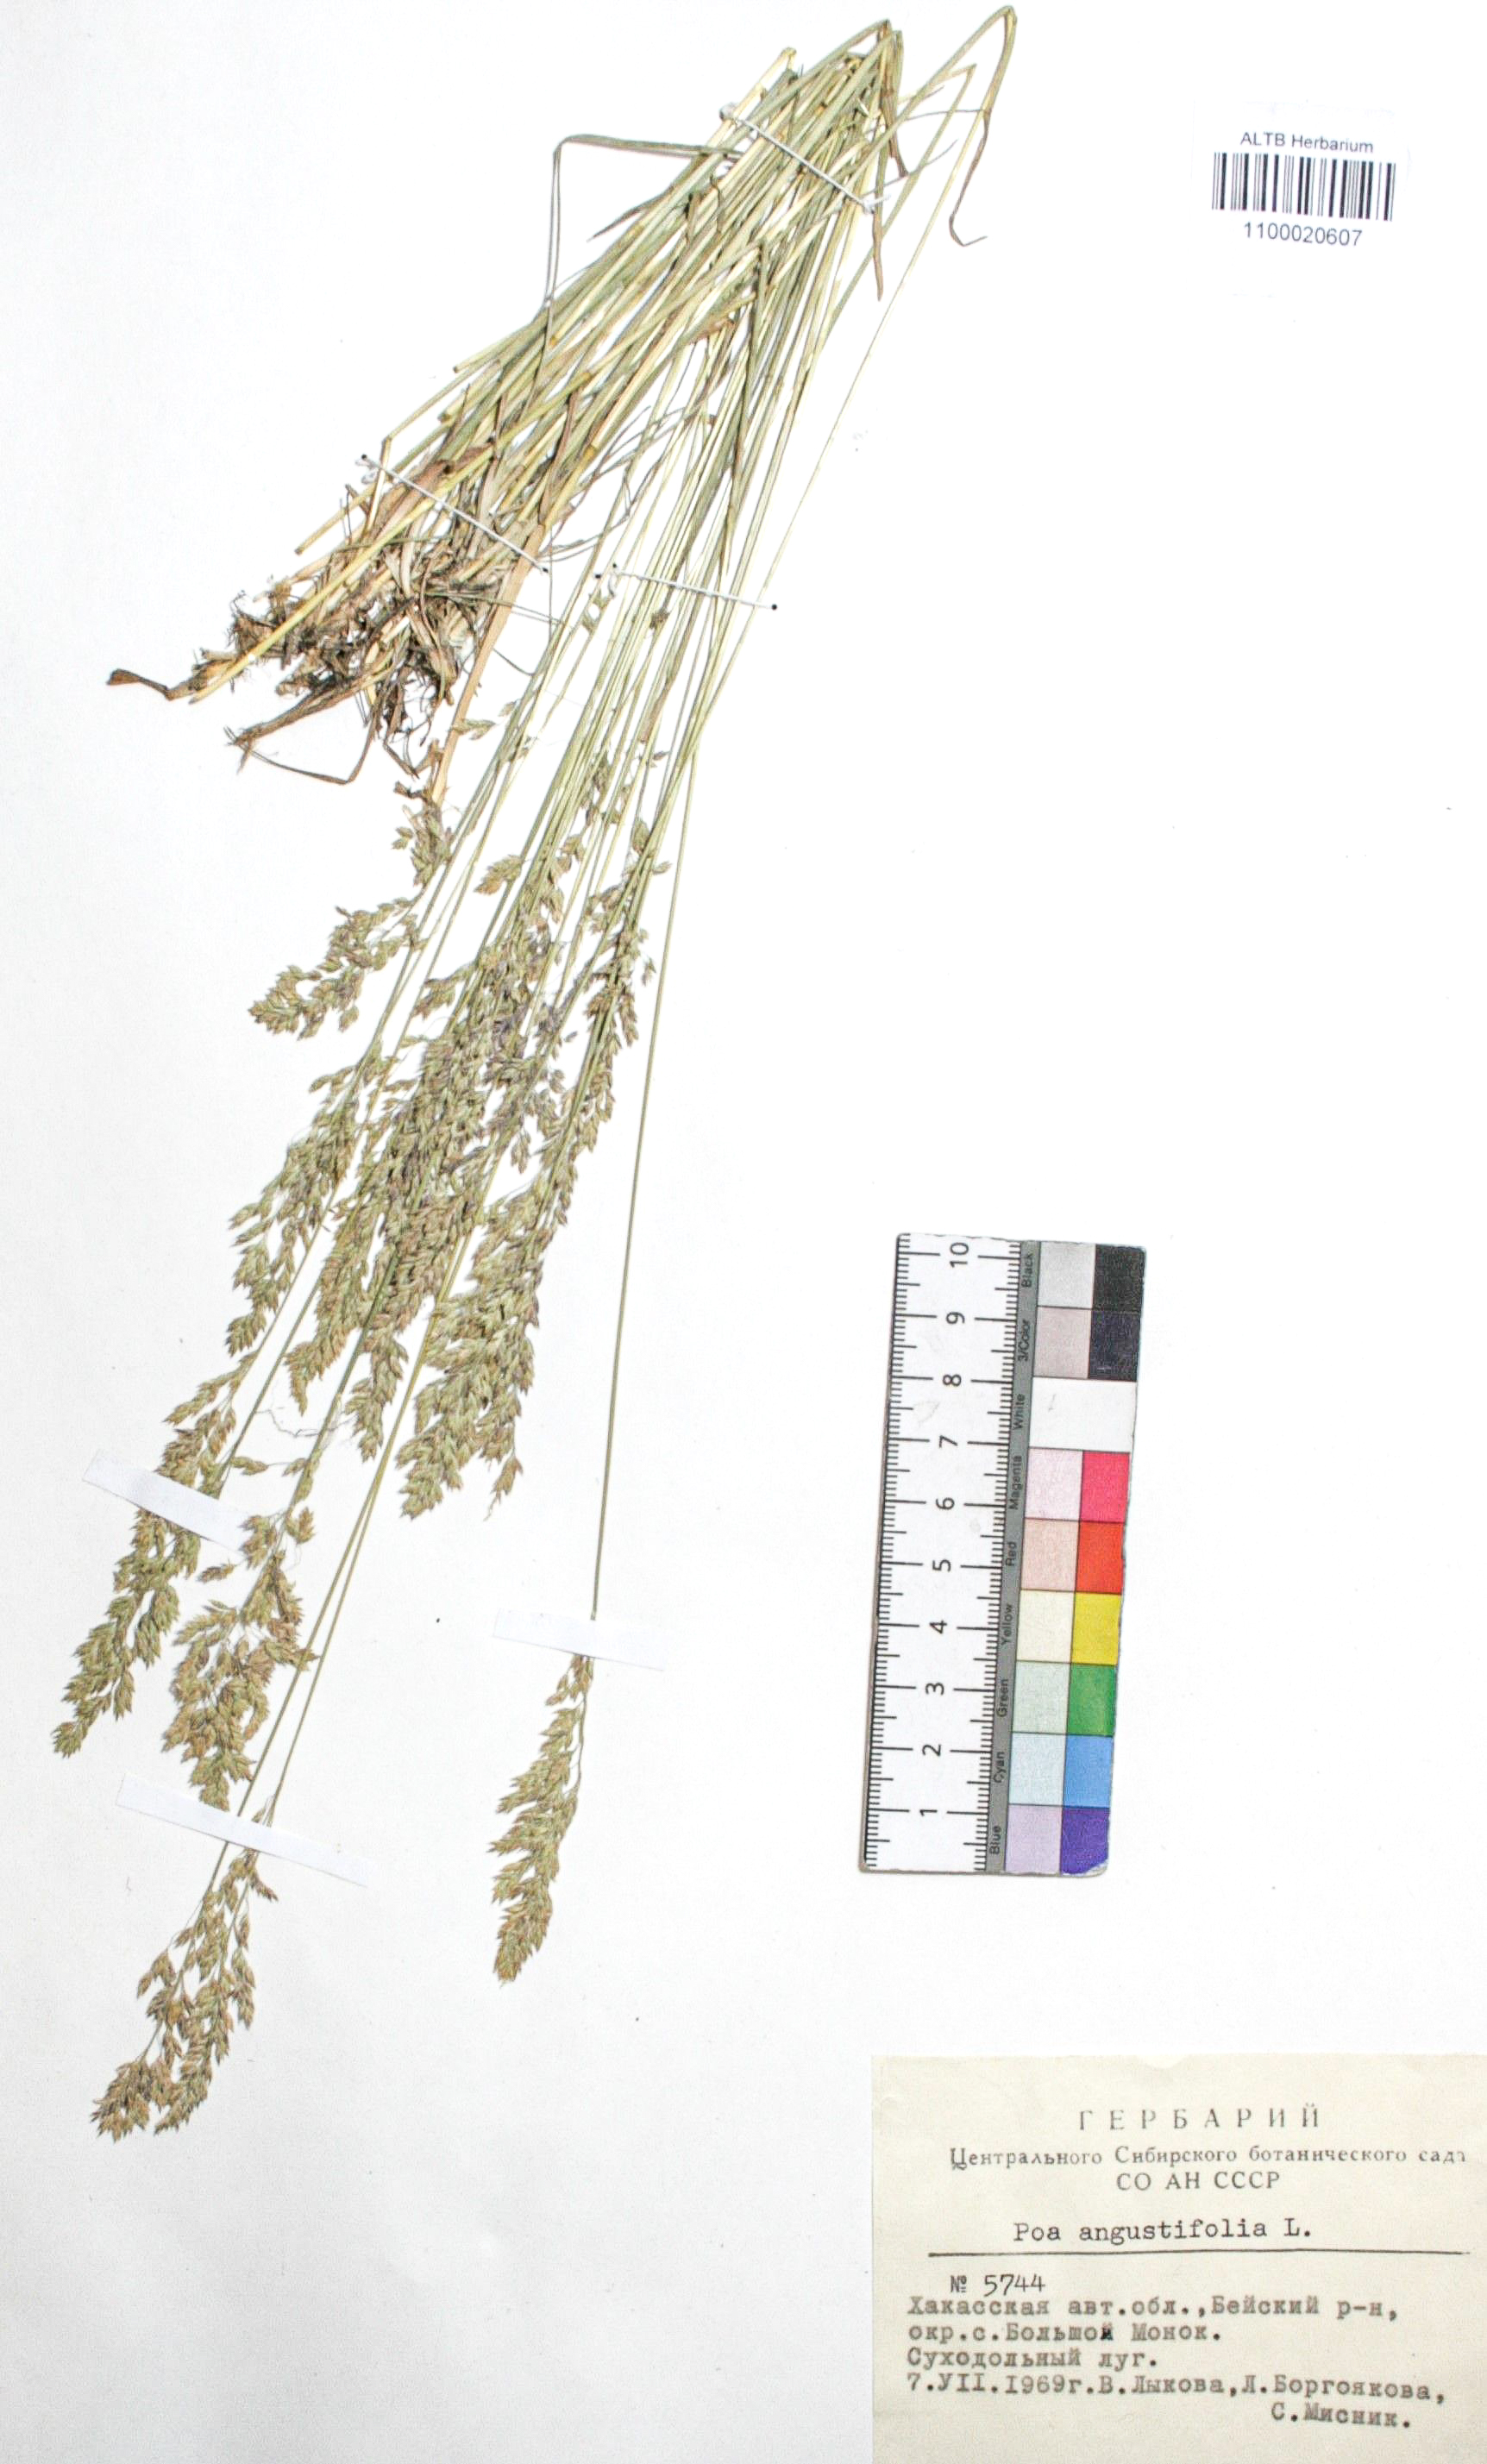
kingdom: Plantae
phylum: Tracheophyta
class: Liliopsida
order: Poales
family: Poaceae
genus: Poa
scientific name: Poa angustifolia
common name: Narrow-leaved meadow-grass
